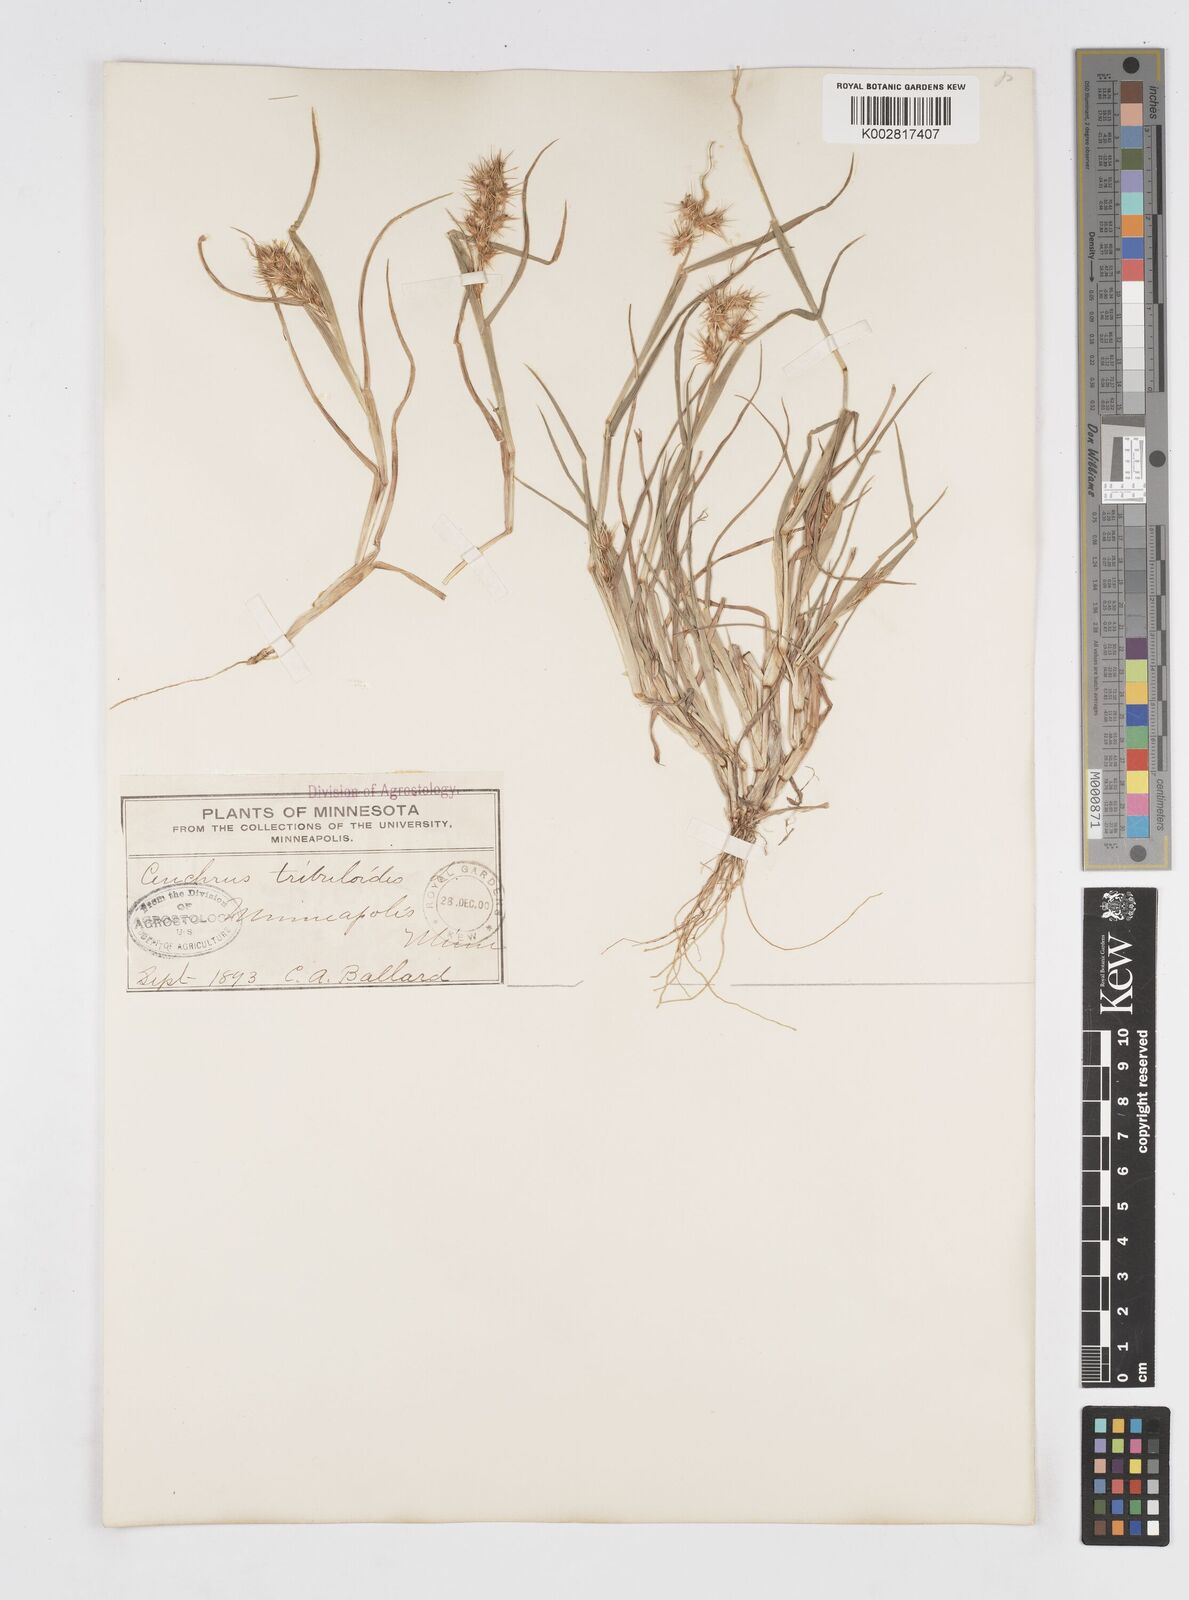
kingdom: Plantae
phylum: Tracheophyta
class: Liliopsida
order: Poales
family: Poaceae
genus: Cenchrus
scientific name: Cenchrus longispinus
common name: Mat sandbur
